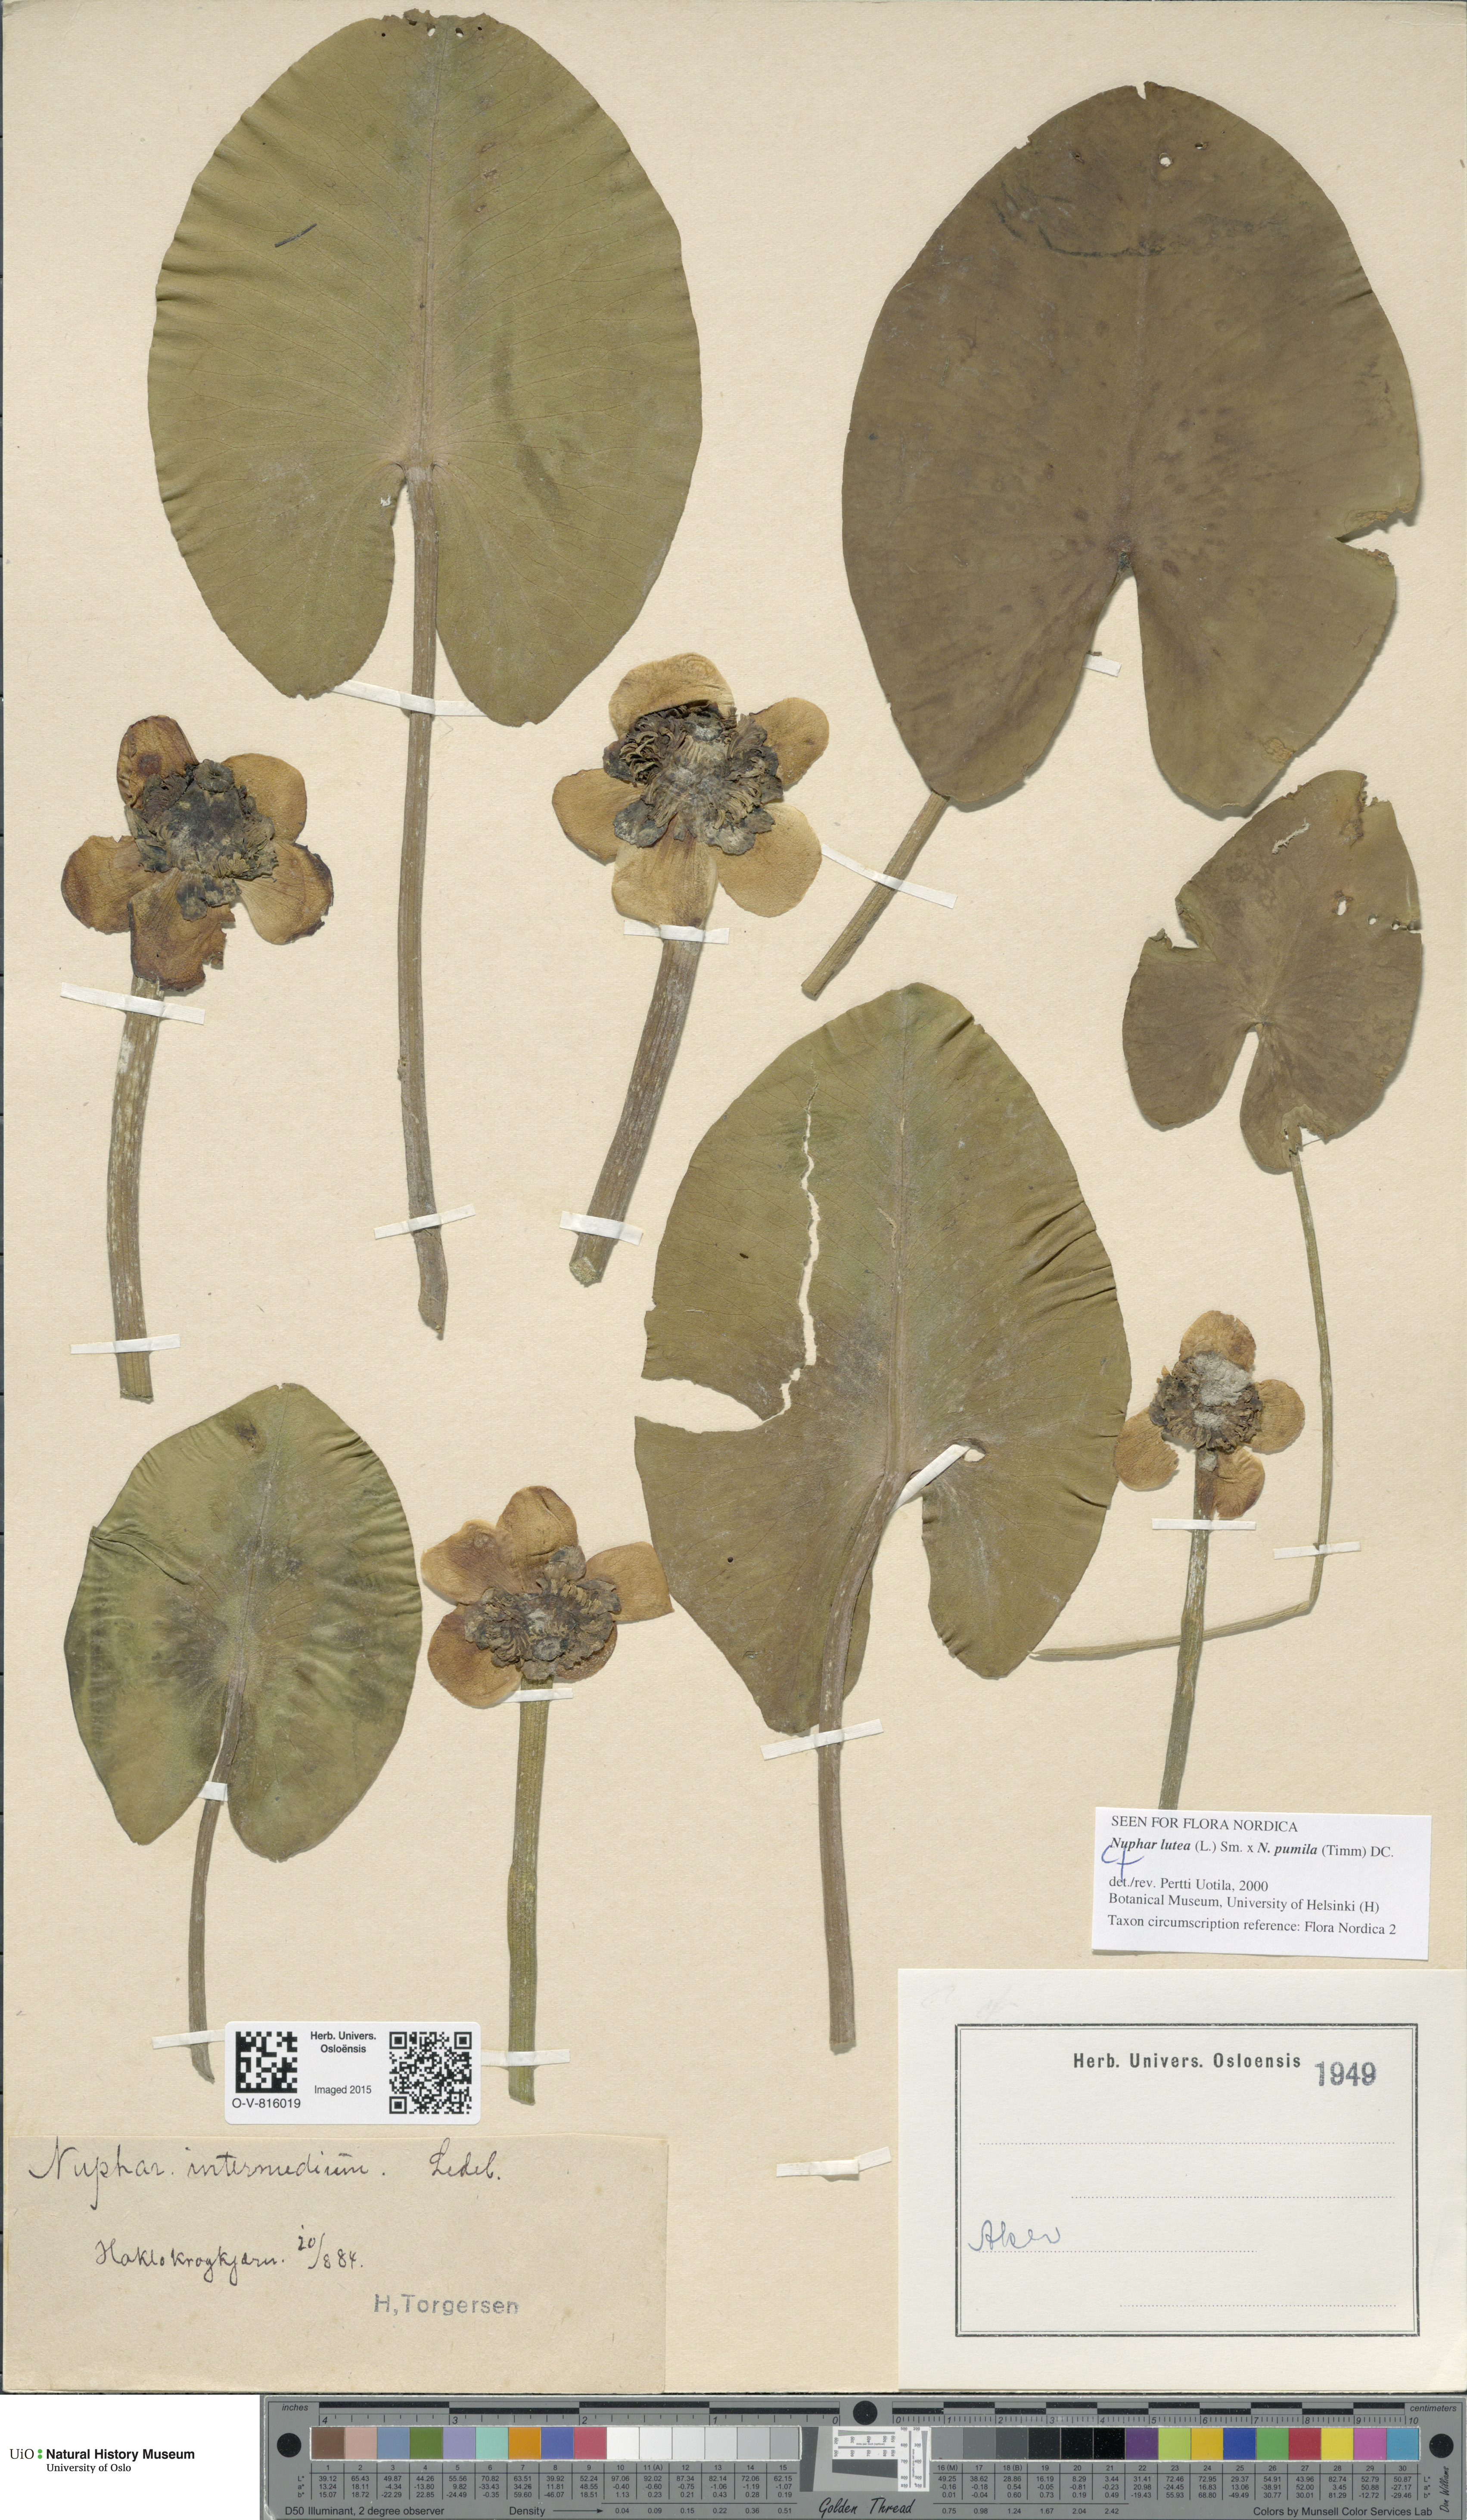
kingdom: Plantae
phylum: Tracheophyta
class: Magnoliopsida
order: Nymphaeales
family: Nymphaeaceae
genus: Nuphar
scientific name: Nuphar
